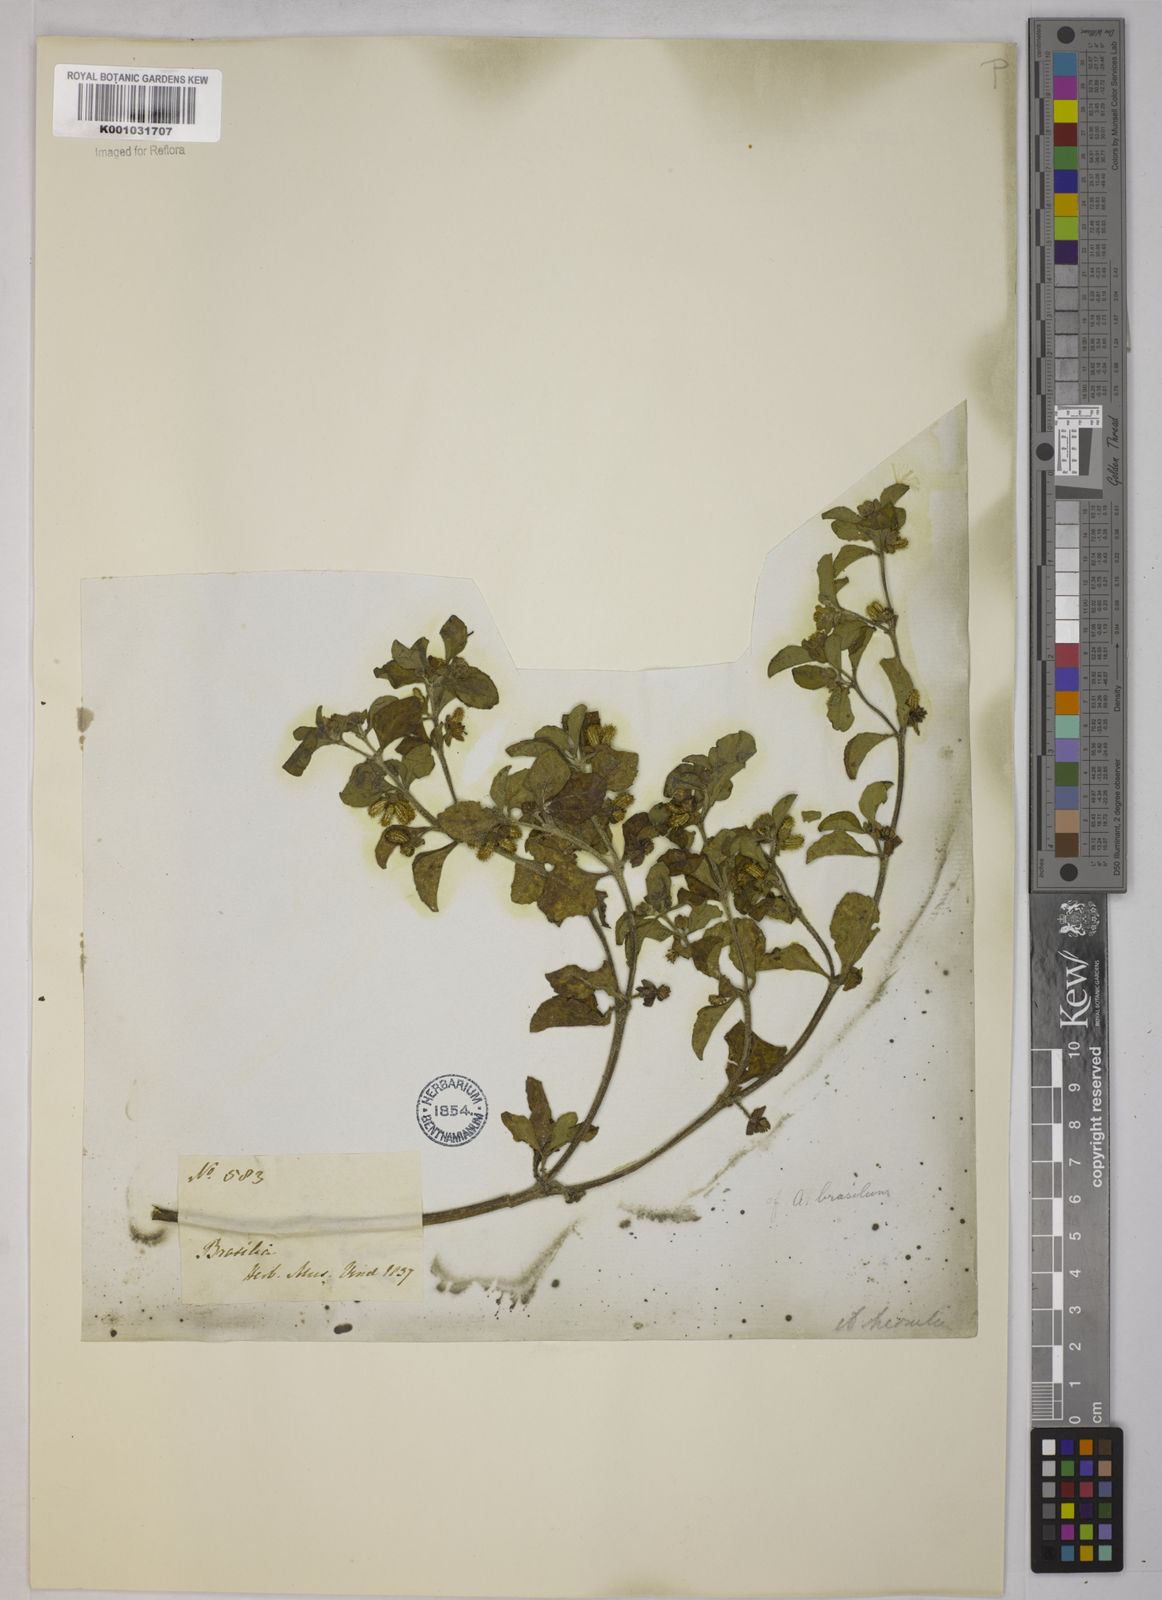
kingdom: Plantae
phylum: Tracheophyta
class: Magnoliopsida
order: Asterales
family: Asteraceae
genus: Acanthospermum
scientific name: Acanthospermum australe
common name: Paraguayan starbur
